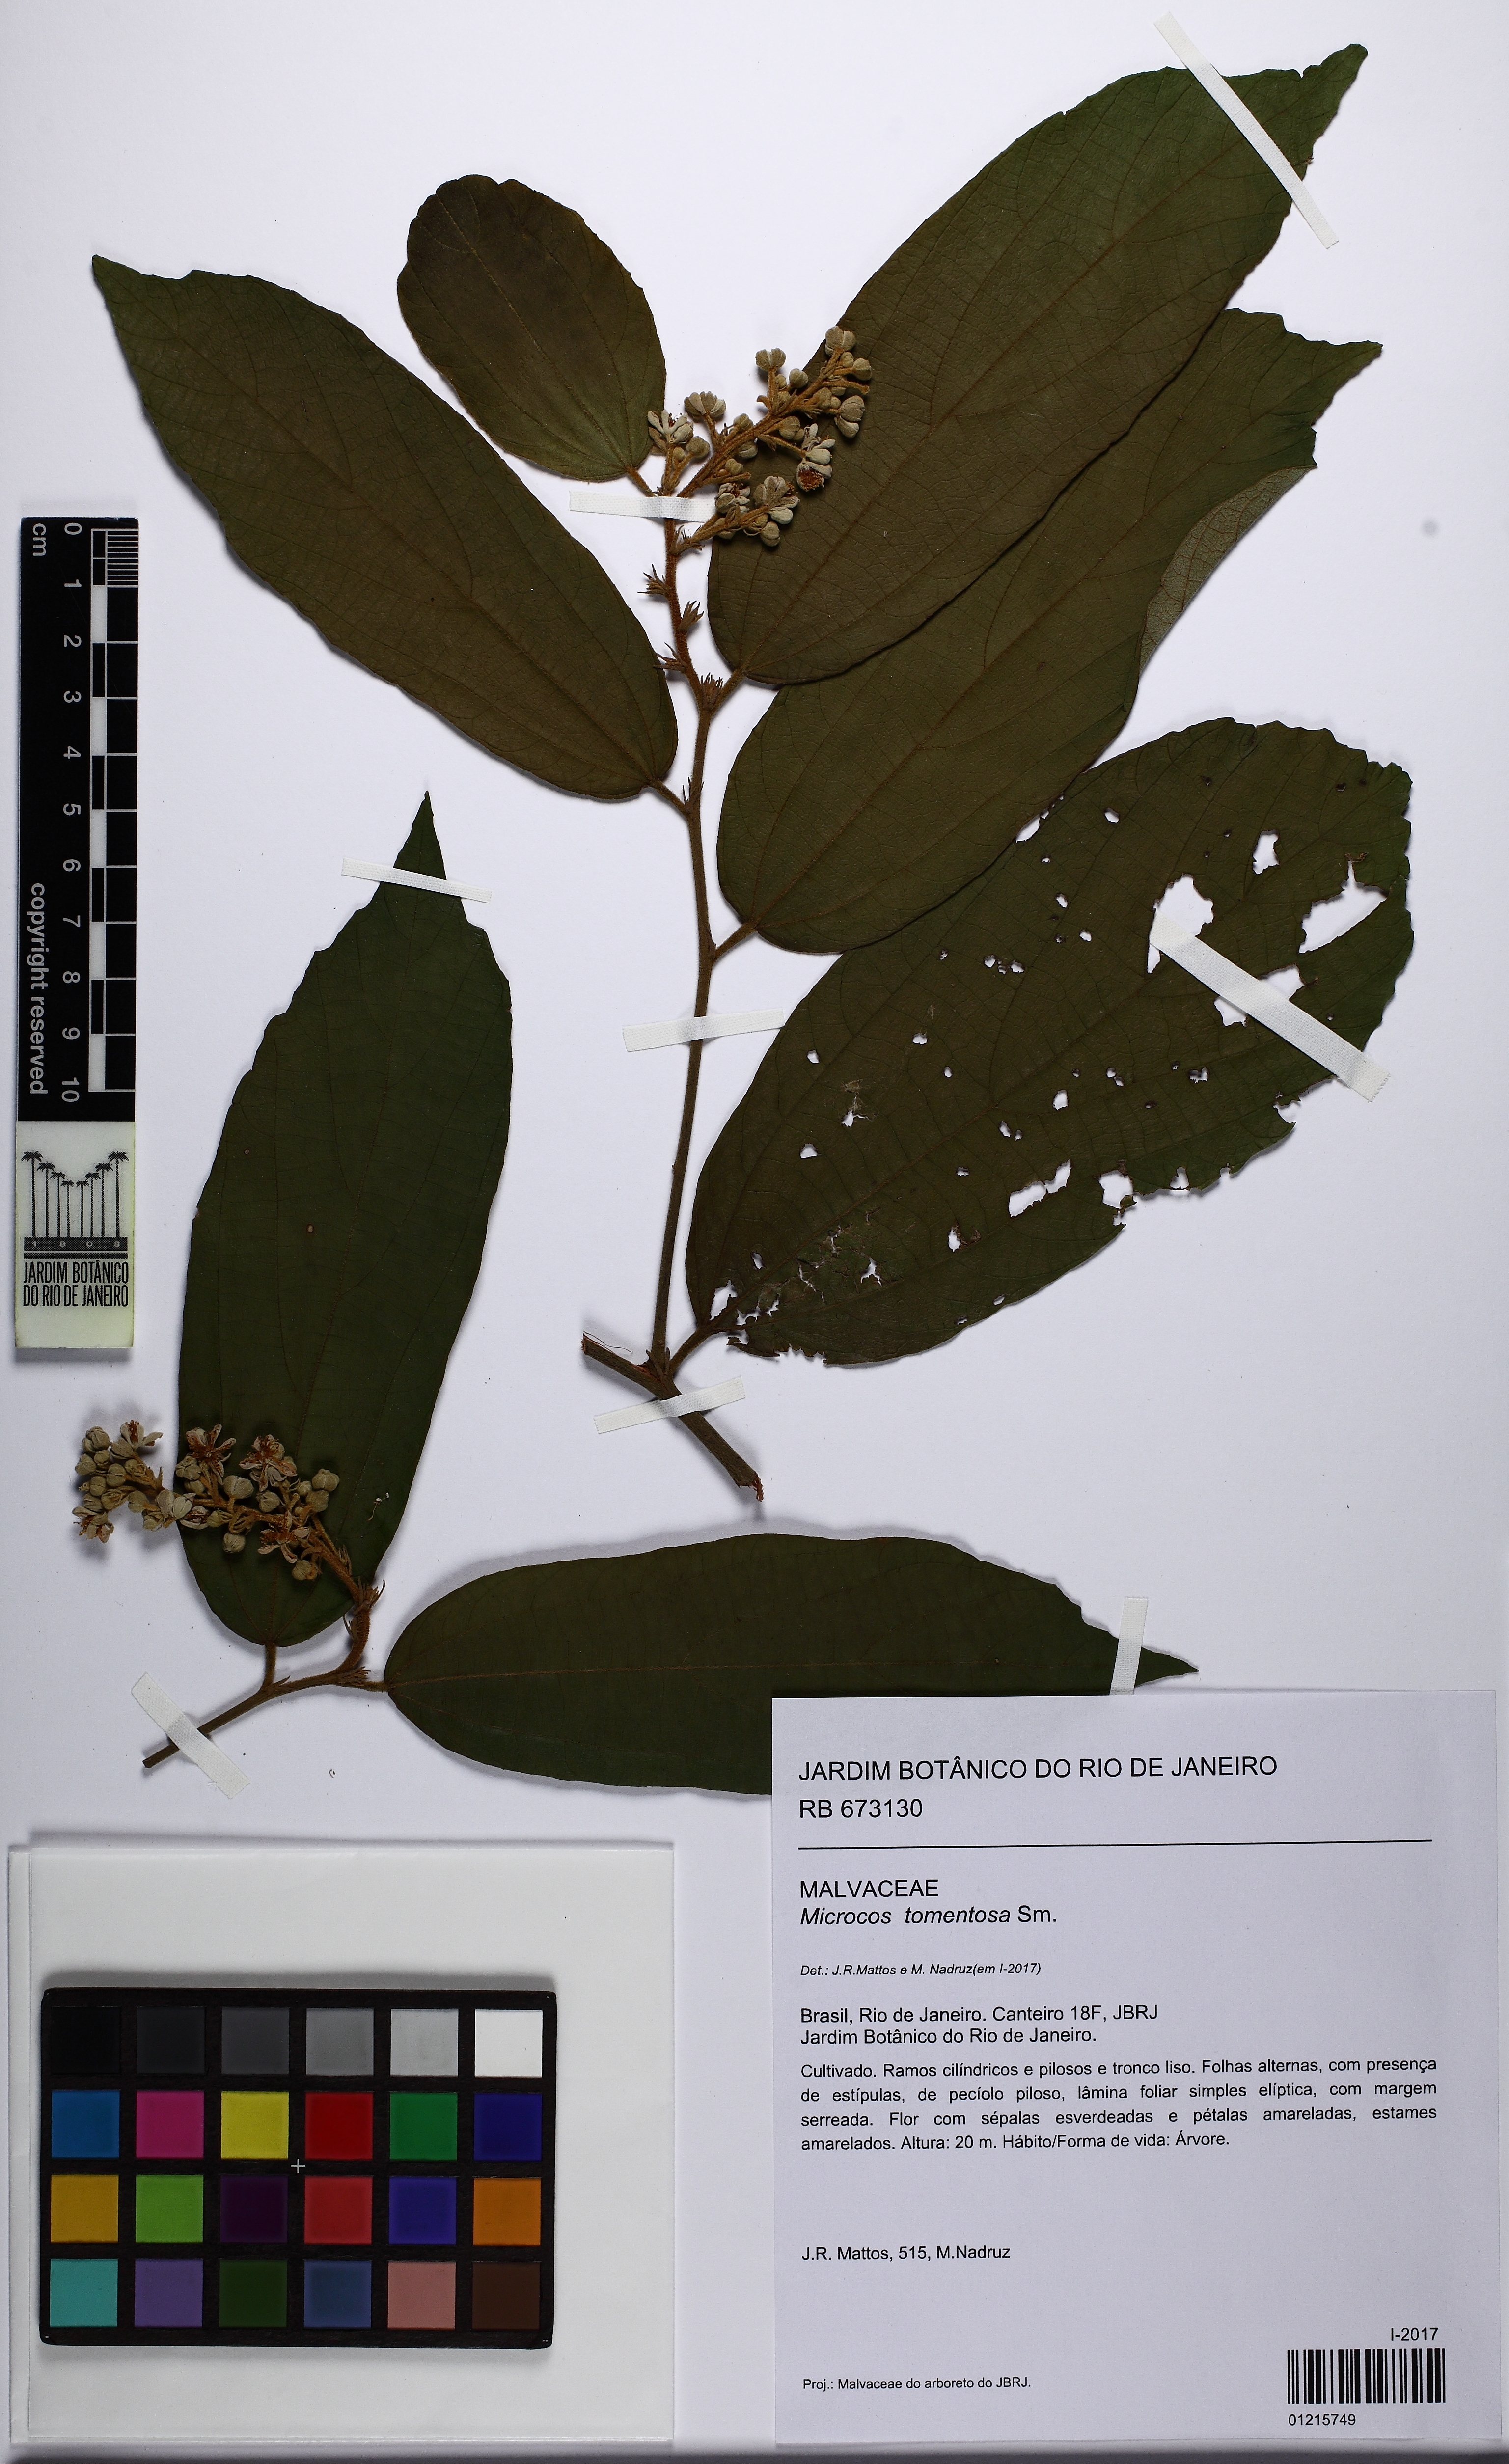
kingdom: Plantae
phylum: Tracheophyta
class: Magnoliopsida
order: Malvales
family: Malvaceae
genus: Microcos
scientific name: Microcos tomentosa
